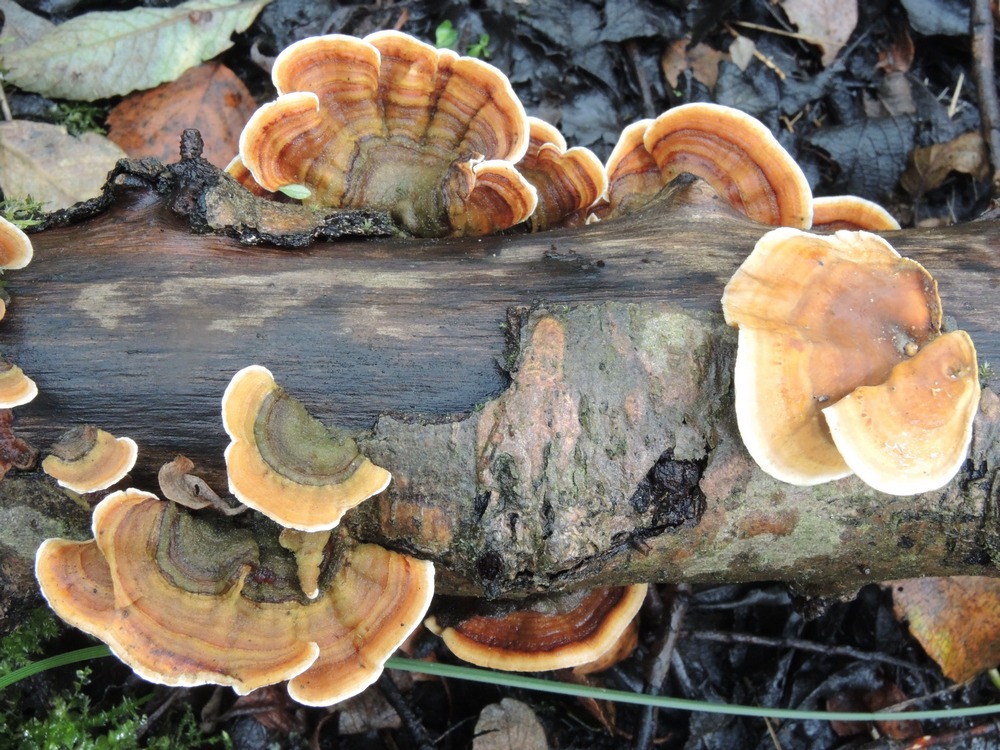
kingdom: Fungi
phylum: Basidiomycota
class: Agaricomycetes
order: Russulales
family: Stereaceae
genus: Stereum
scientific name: Stereum subtomentosum
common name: smuk lædersvamp
